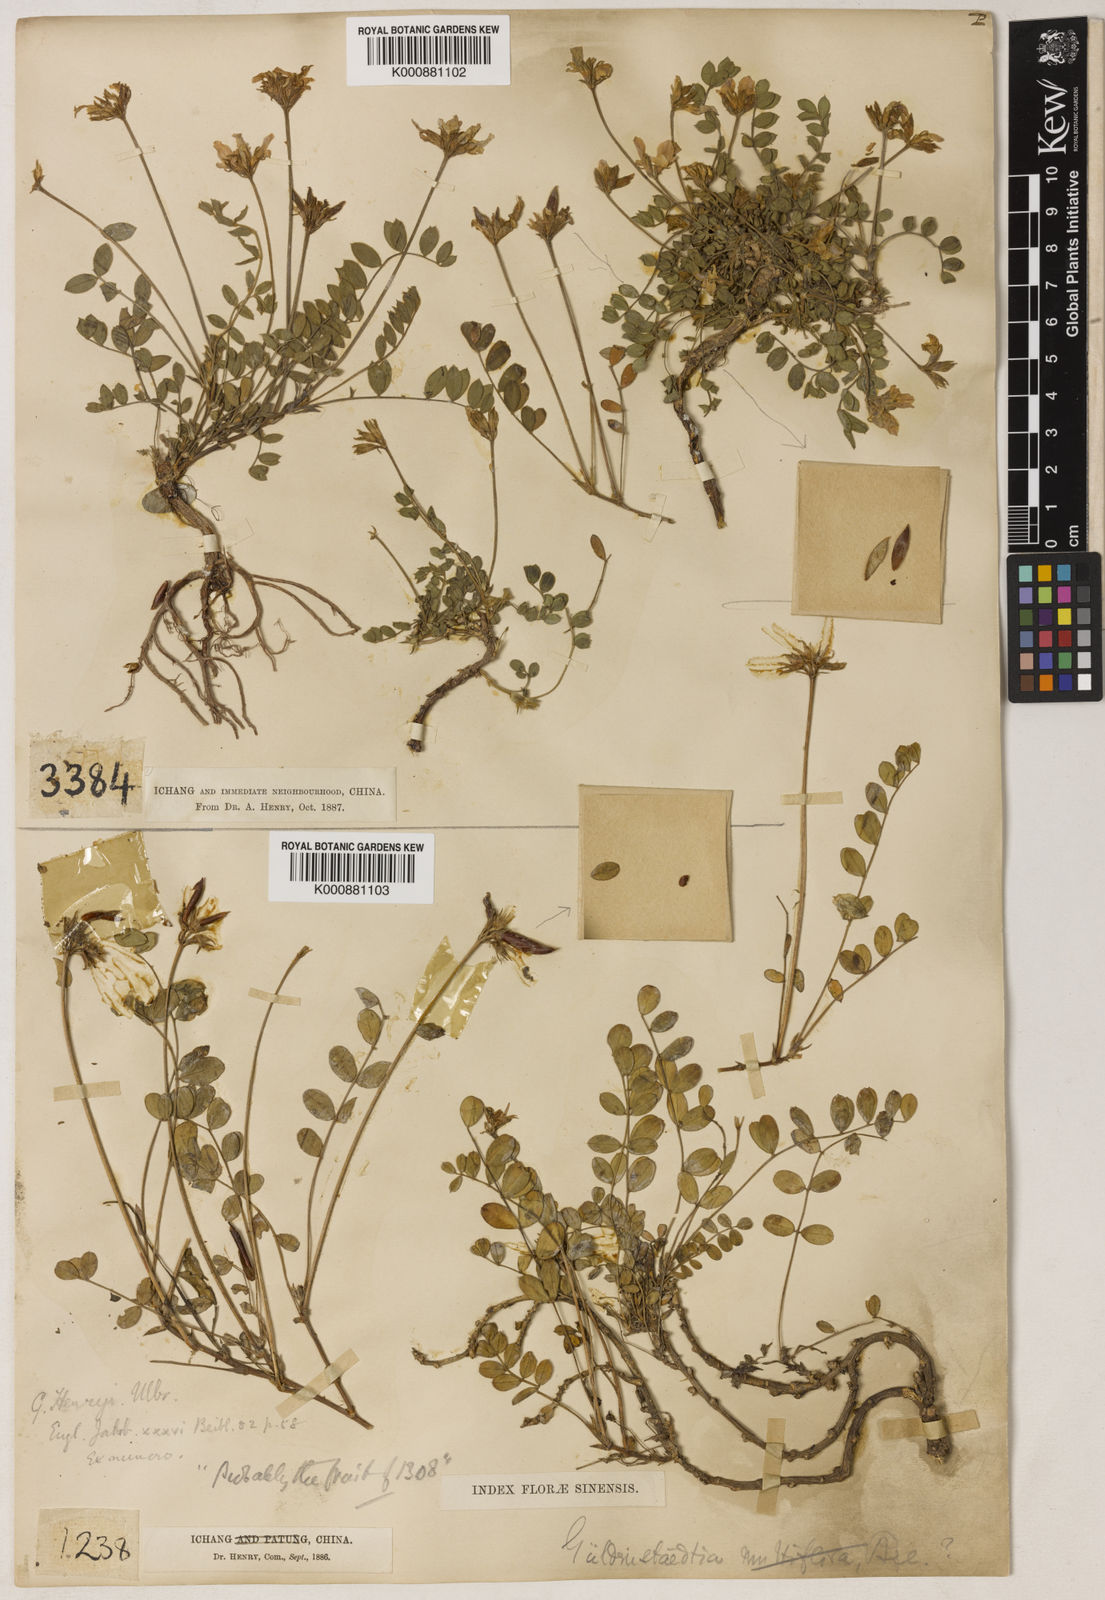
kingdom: Plantae
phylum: Tracheophyta
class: Magnoliopsida
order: Fabales
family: Fabaceae
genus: Gueldenstaedtia
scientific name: Gueldenstaedtia henryi
